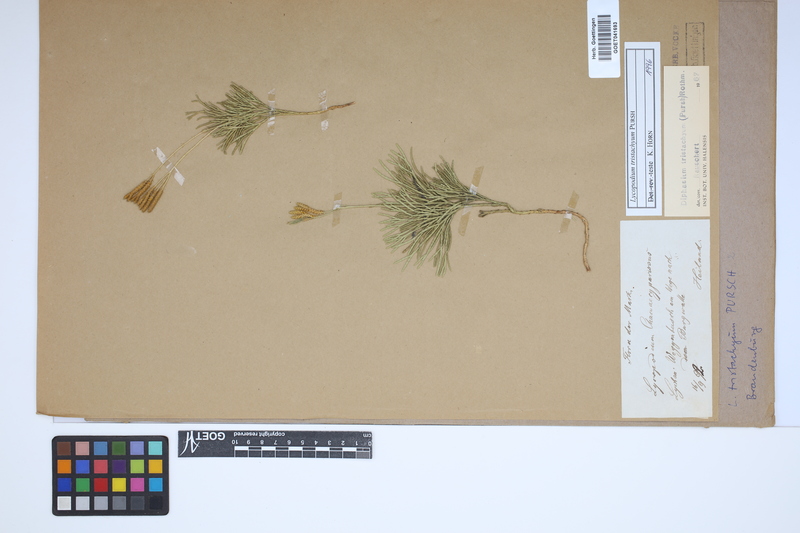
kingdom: Plantae
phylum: Tracheophyta
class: Lycopodiopsida
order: Lycopodiales
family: Lycopodiaceae
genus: Diphasiastrum
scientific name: Diphasiastrum tristachyum
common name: Blue ground-cedar
